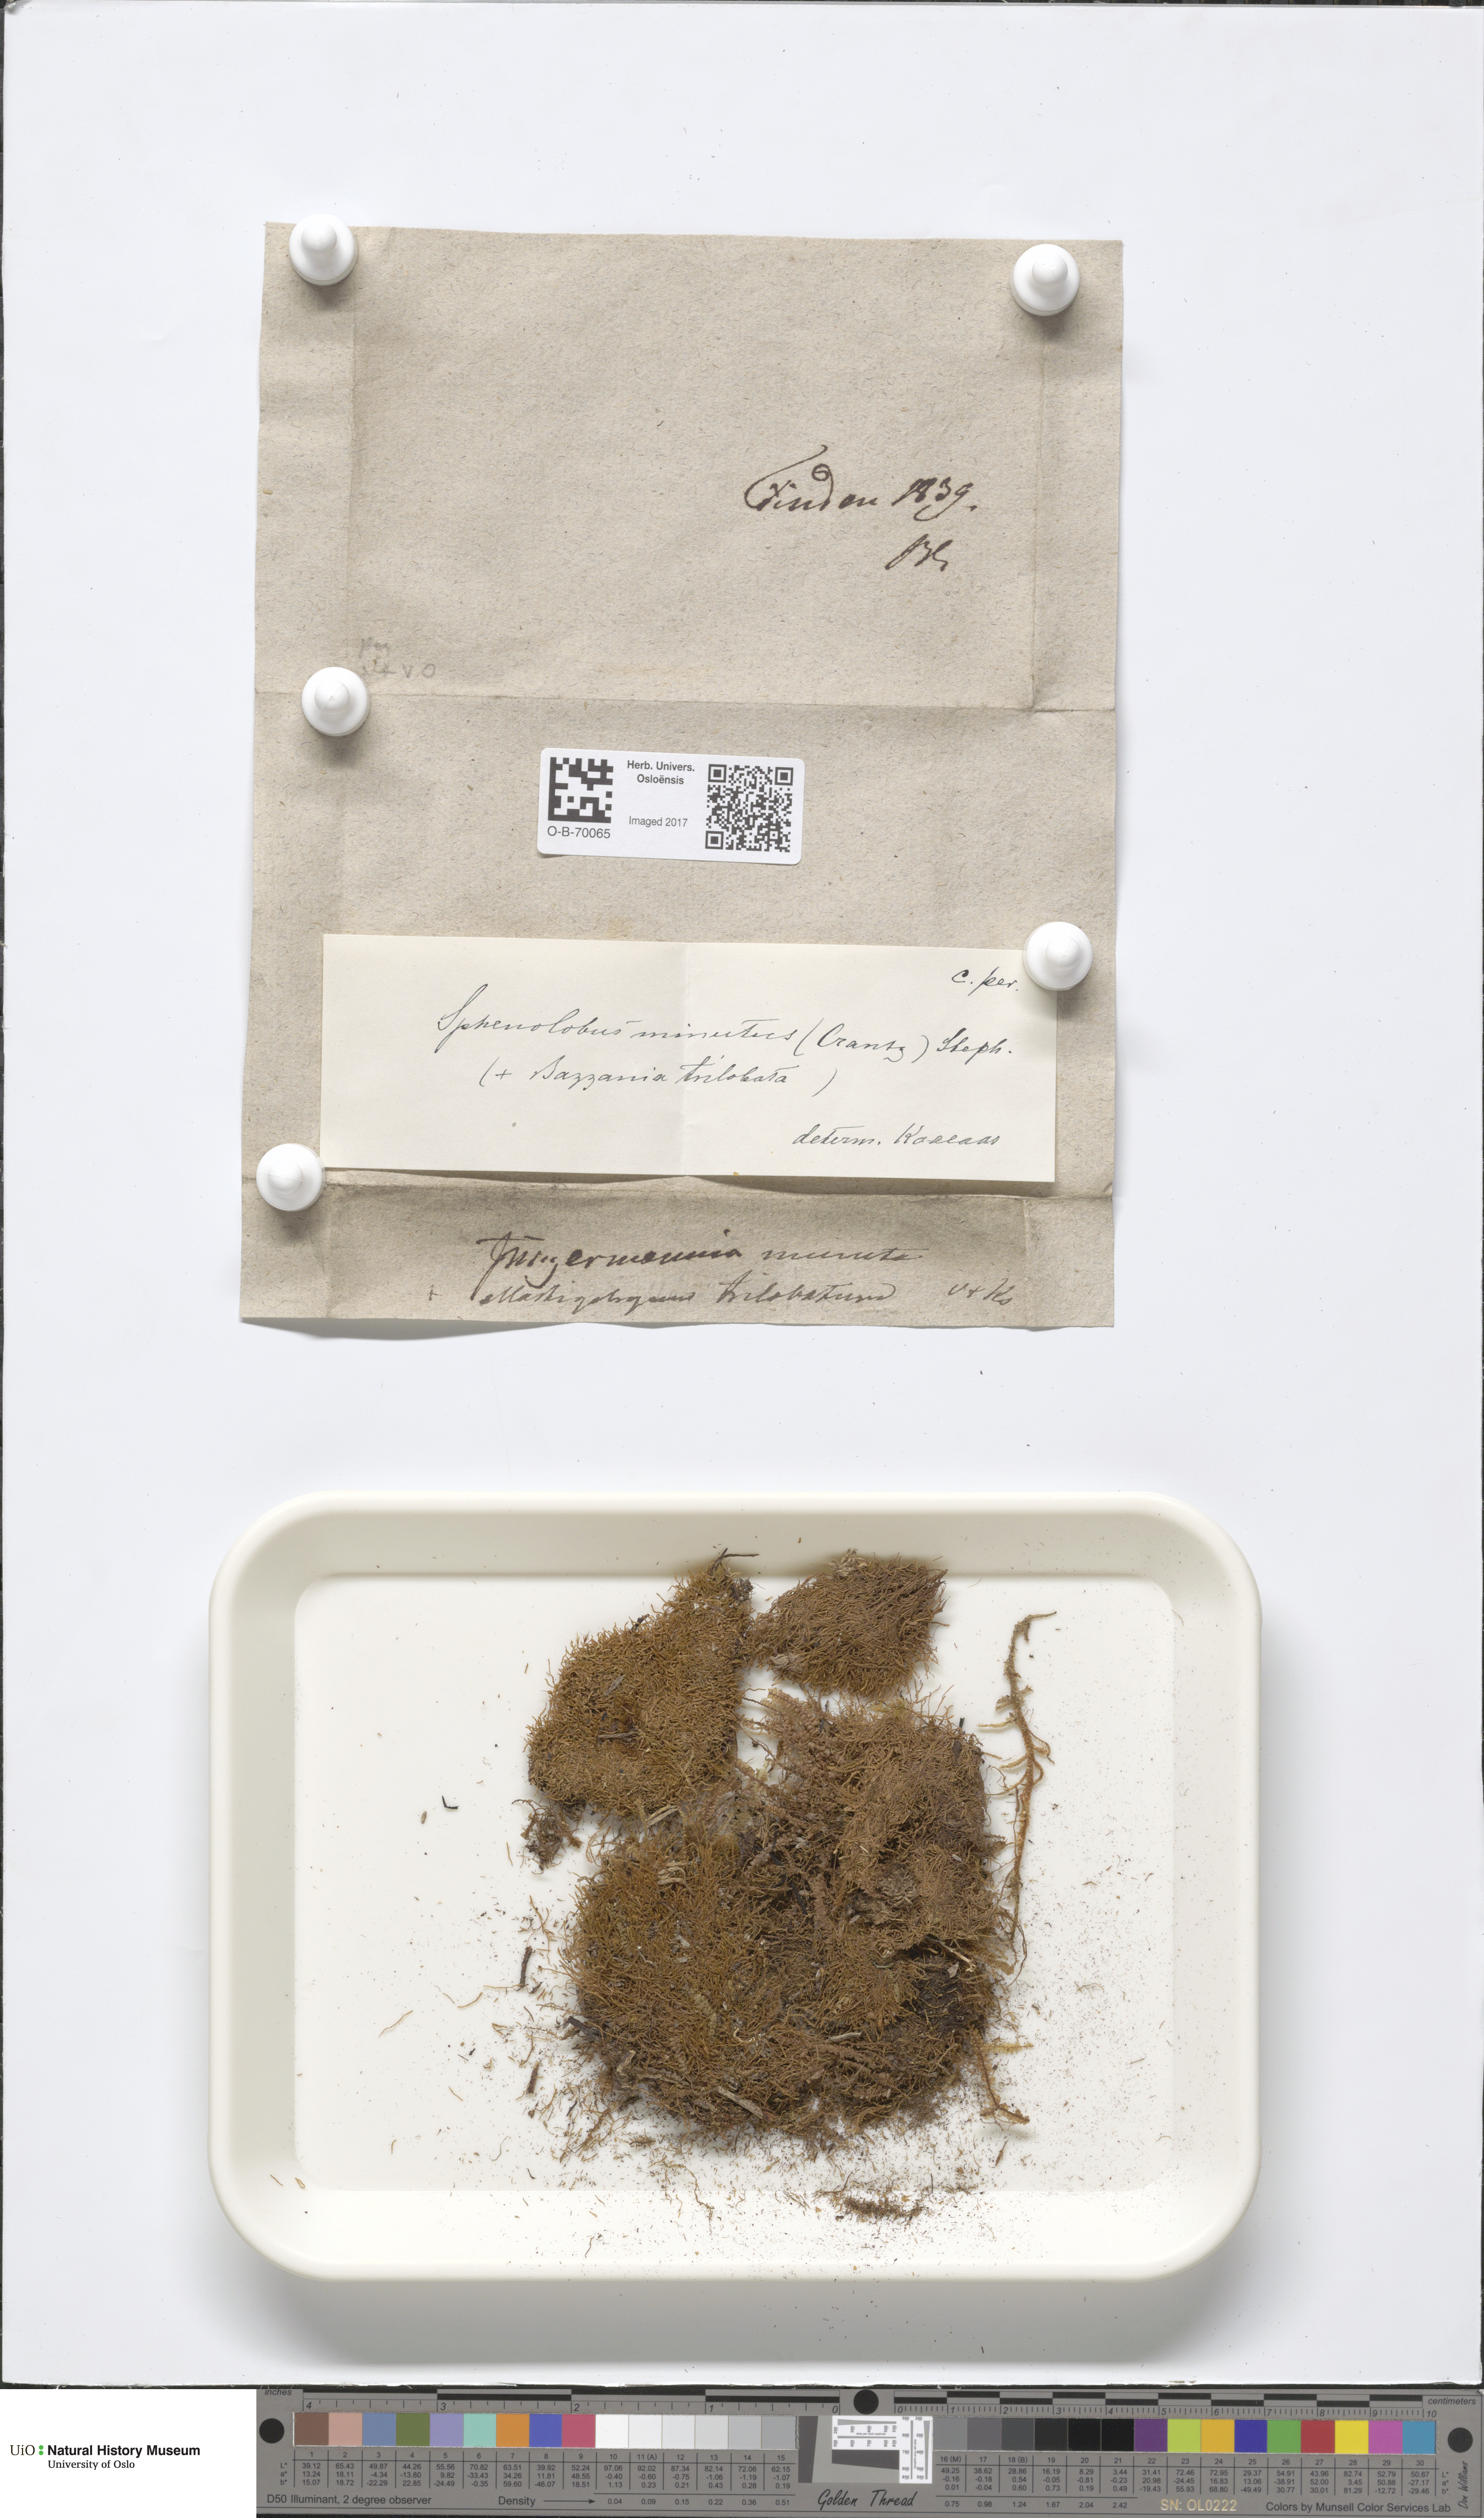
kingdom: Plantae
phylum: Marchantiophyta
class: Jungermanniopsida
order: Jungermanniales
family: Anastrophyllaceae
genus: Sphenolobus
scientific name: Sphenolobus minutus
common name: Comb notchwort
